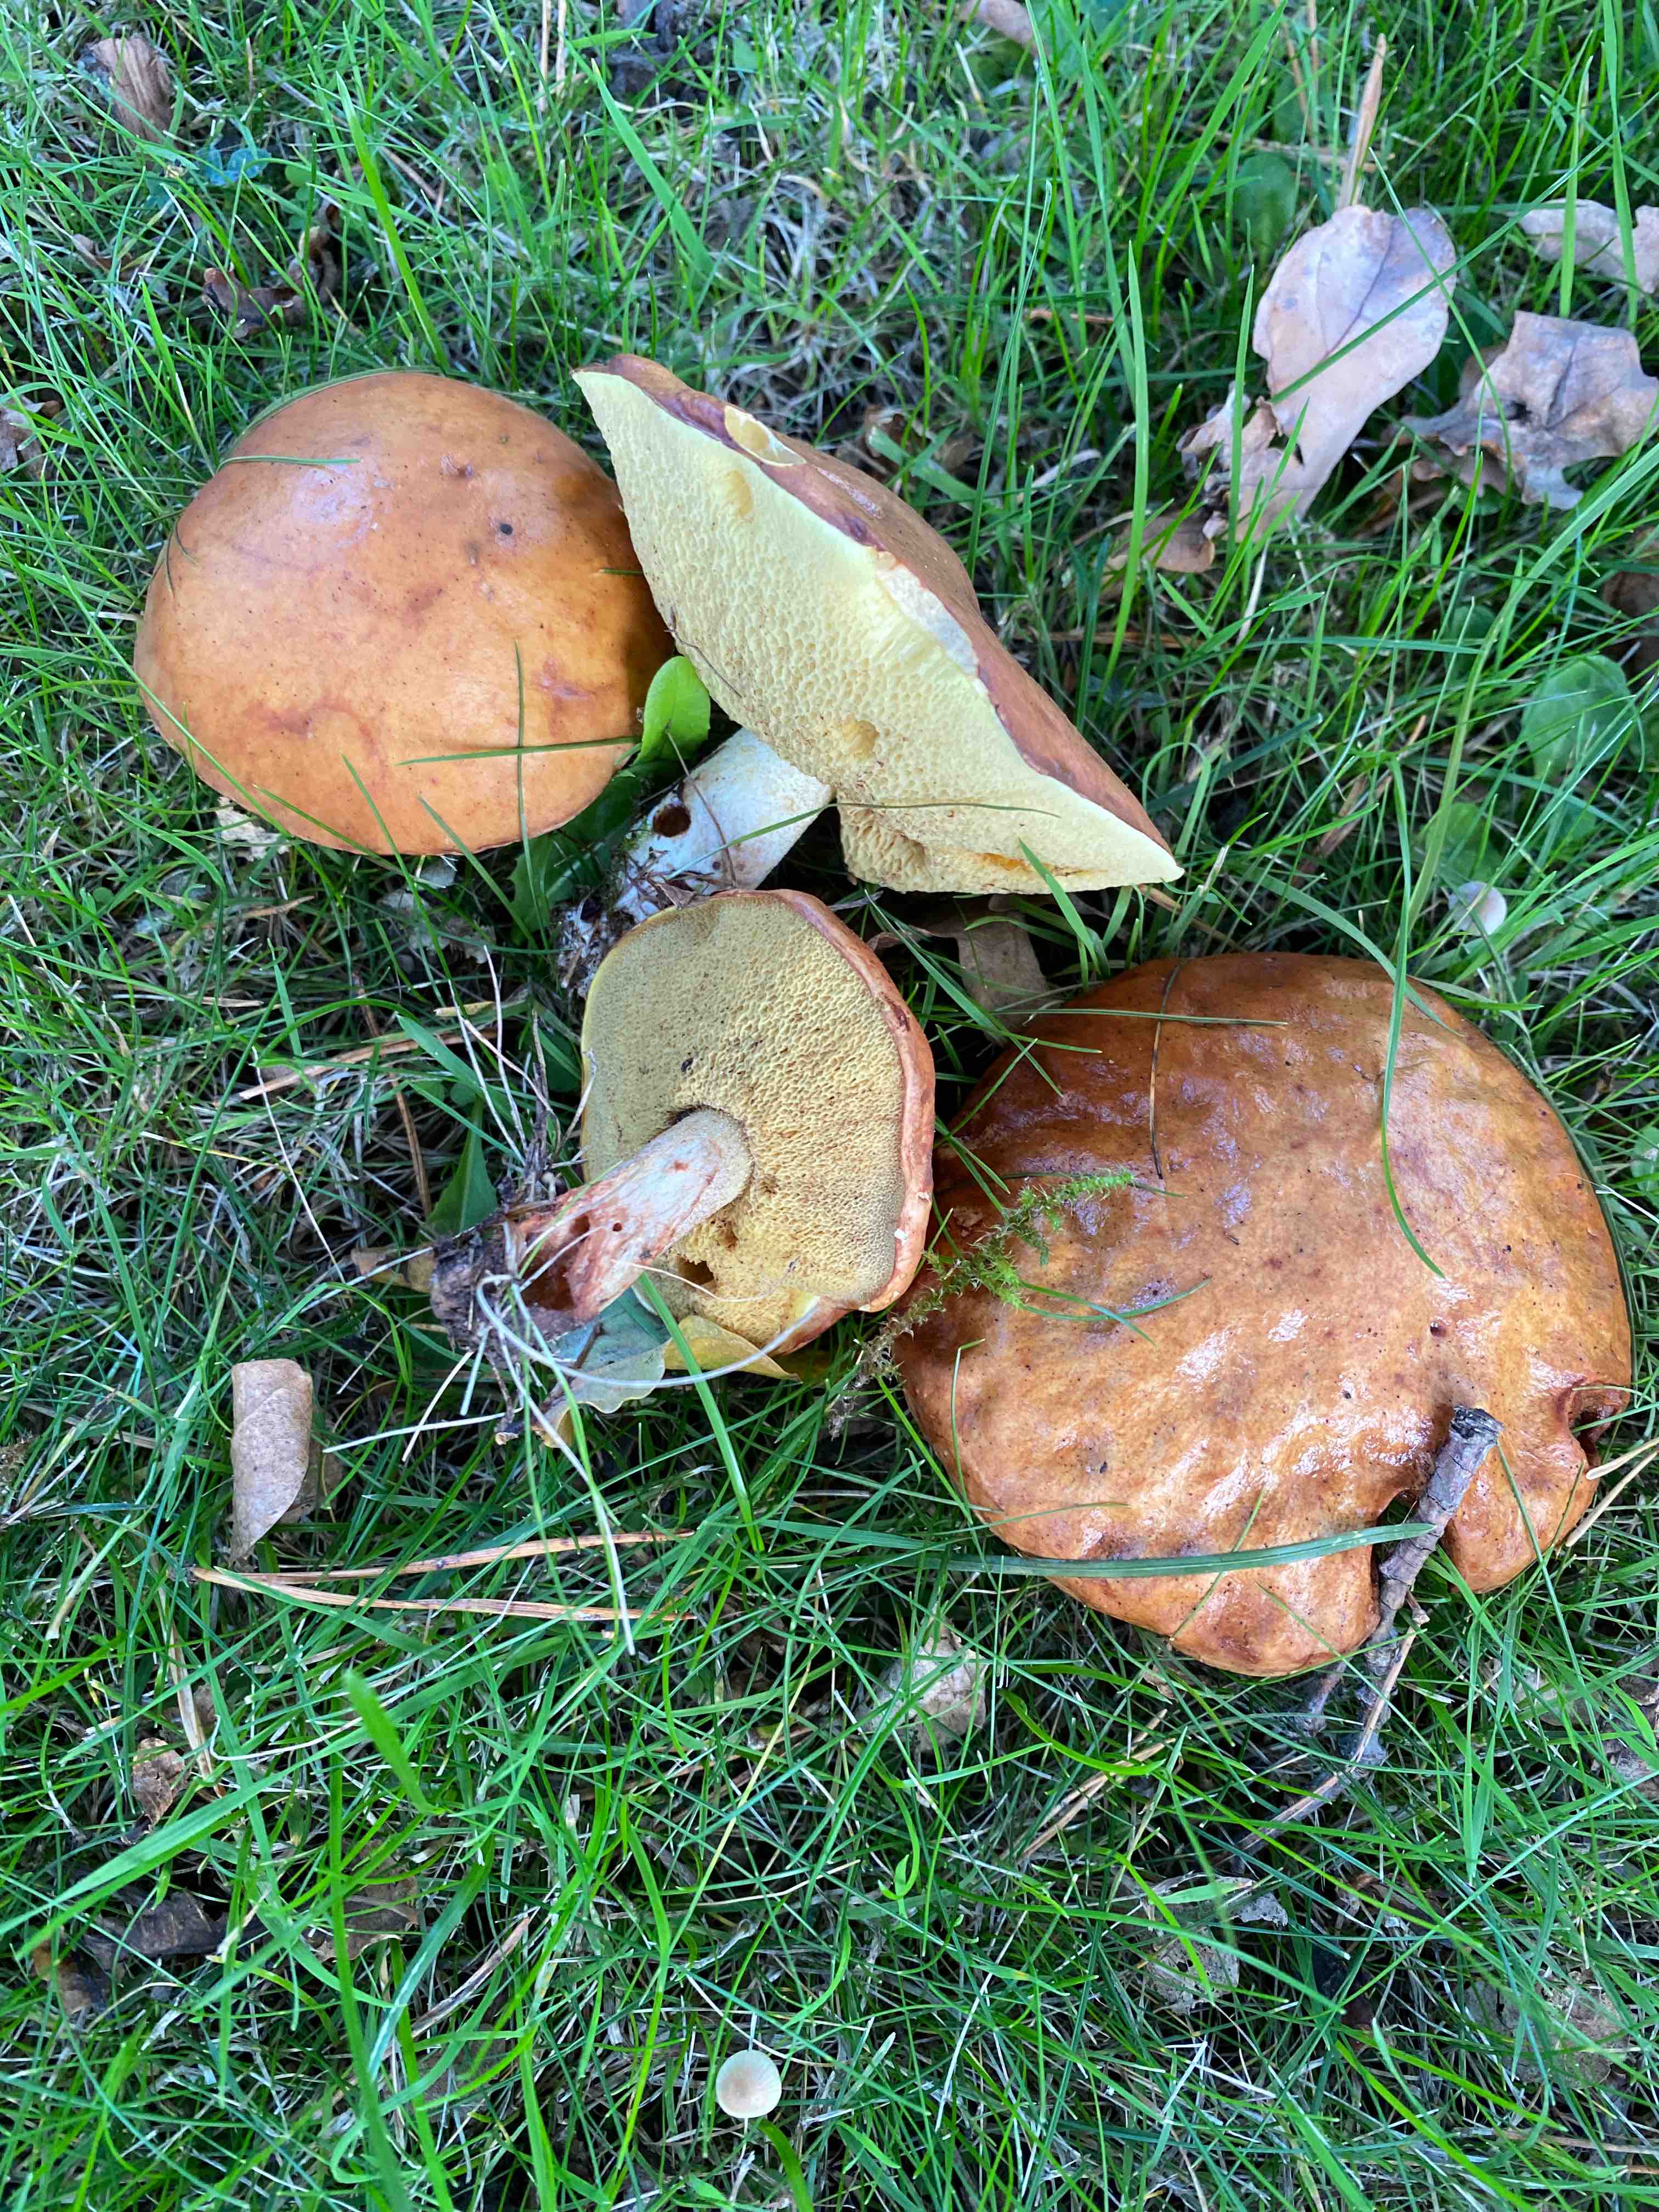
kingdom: Fungi
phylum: Basidiomycota
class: Agaricomycetes
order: Boletales
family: Suillaceae
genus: Suillus
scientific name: Suillus granulatus
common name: kornet slimrørhat
